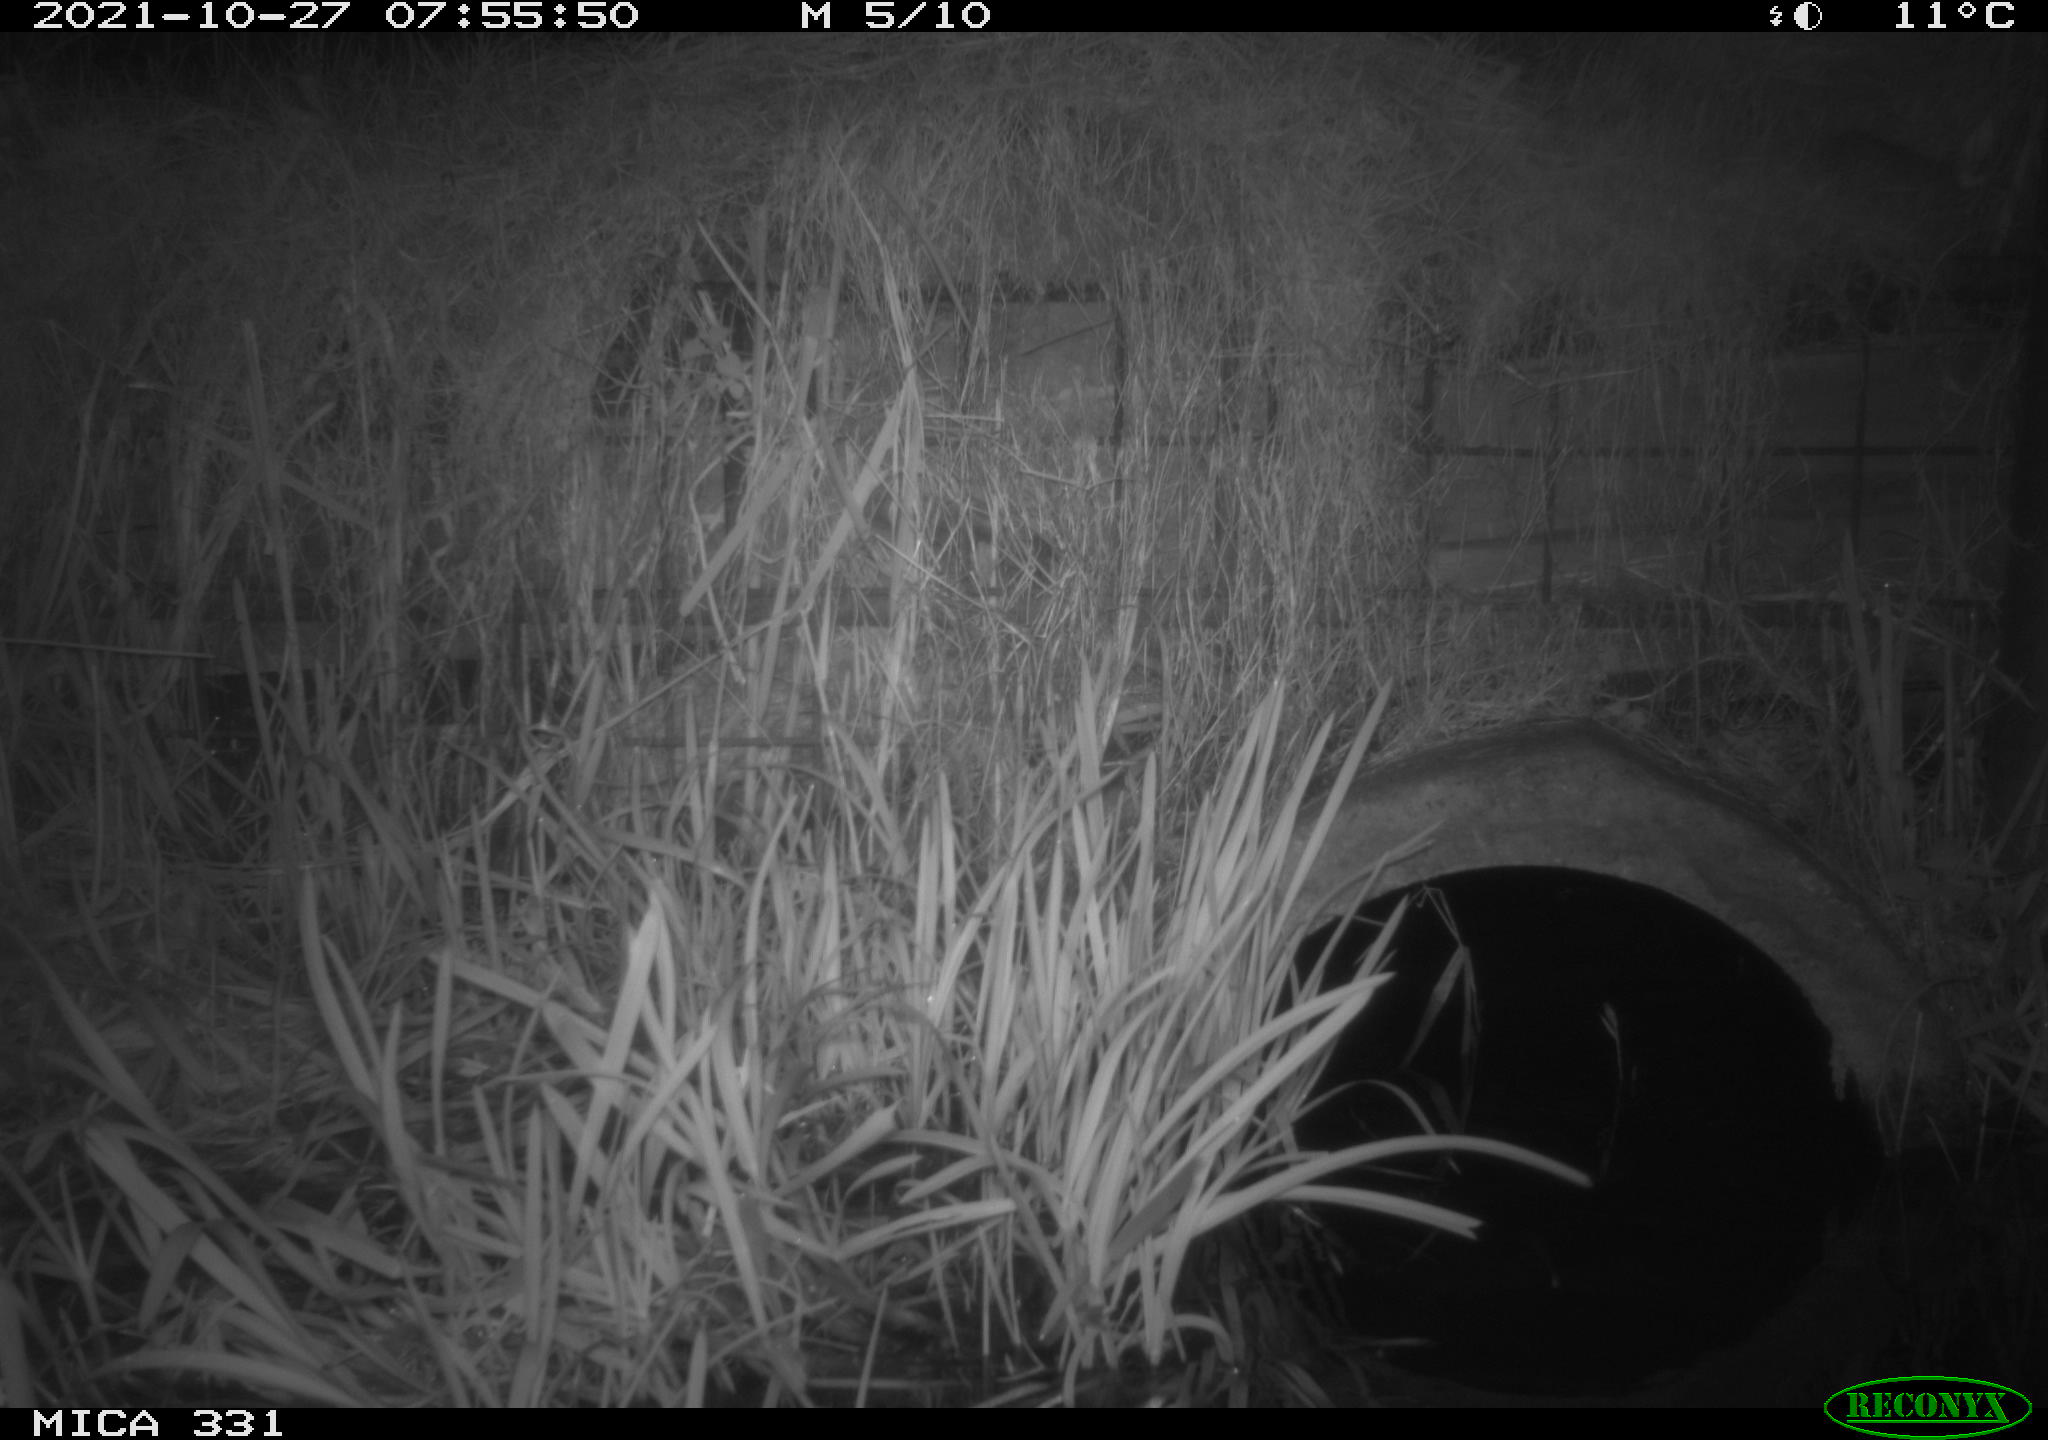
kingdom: Animalia
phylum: Chordata
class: Mammalia
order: Rodentia
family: Muridae
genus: Rattus
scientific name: Rattus norvegicus
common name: Brown rat
